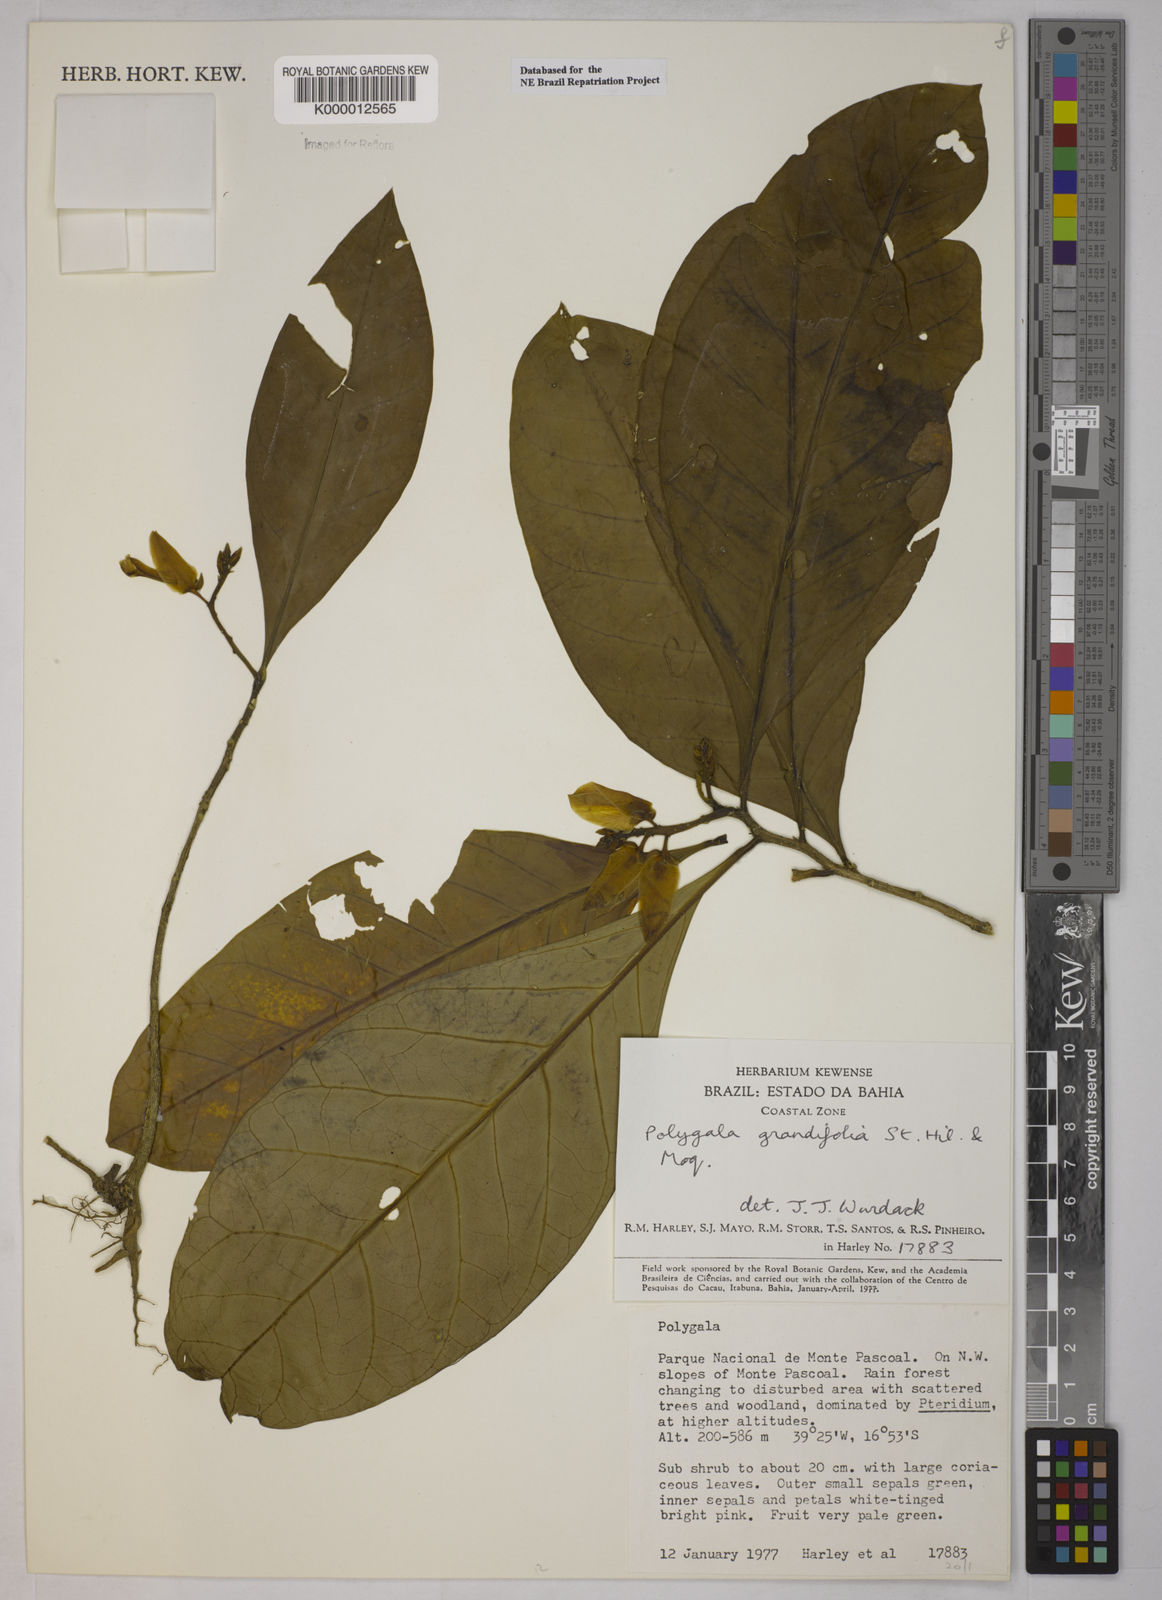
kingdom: Plantae
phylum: Tracheophyta
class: Magnoliopsida
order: Fabales
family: Polygalaceae
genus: Caamembeca
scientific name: Caamembeca grandifolia
